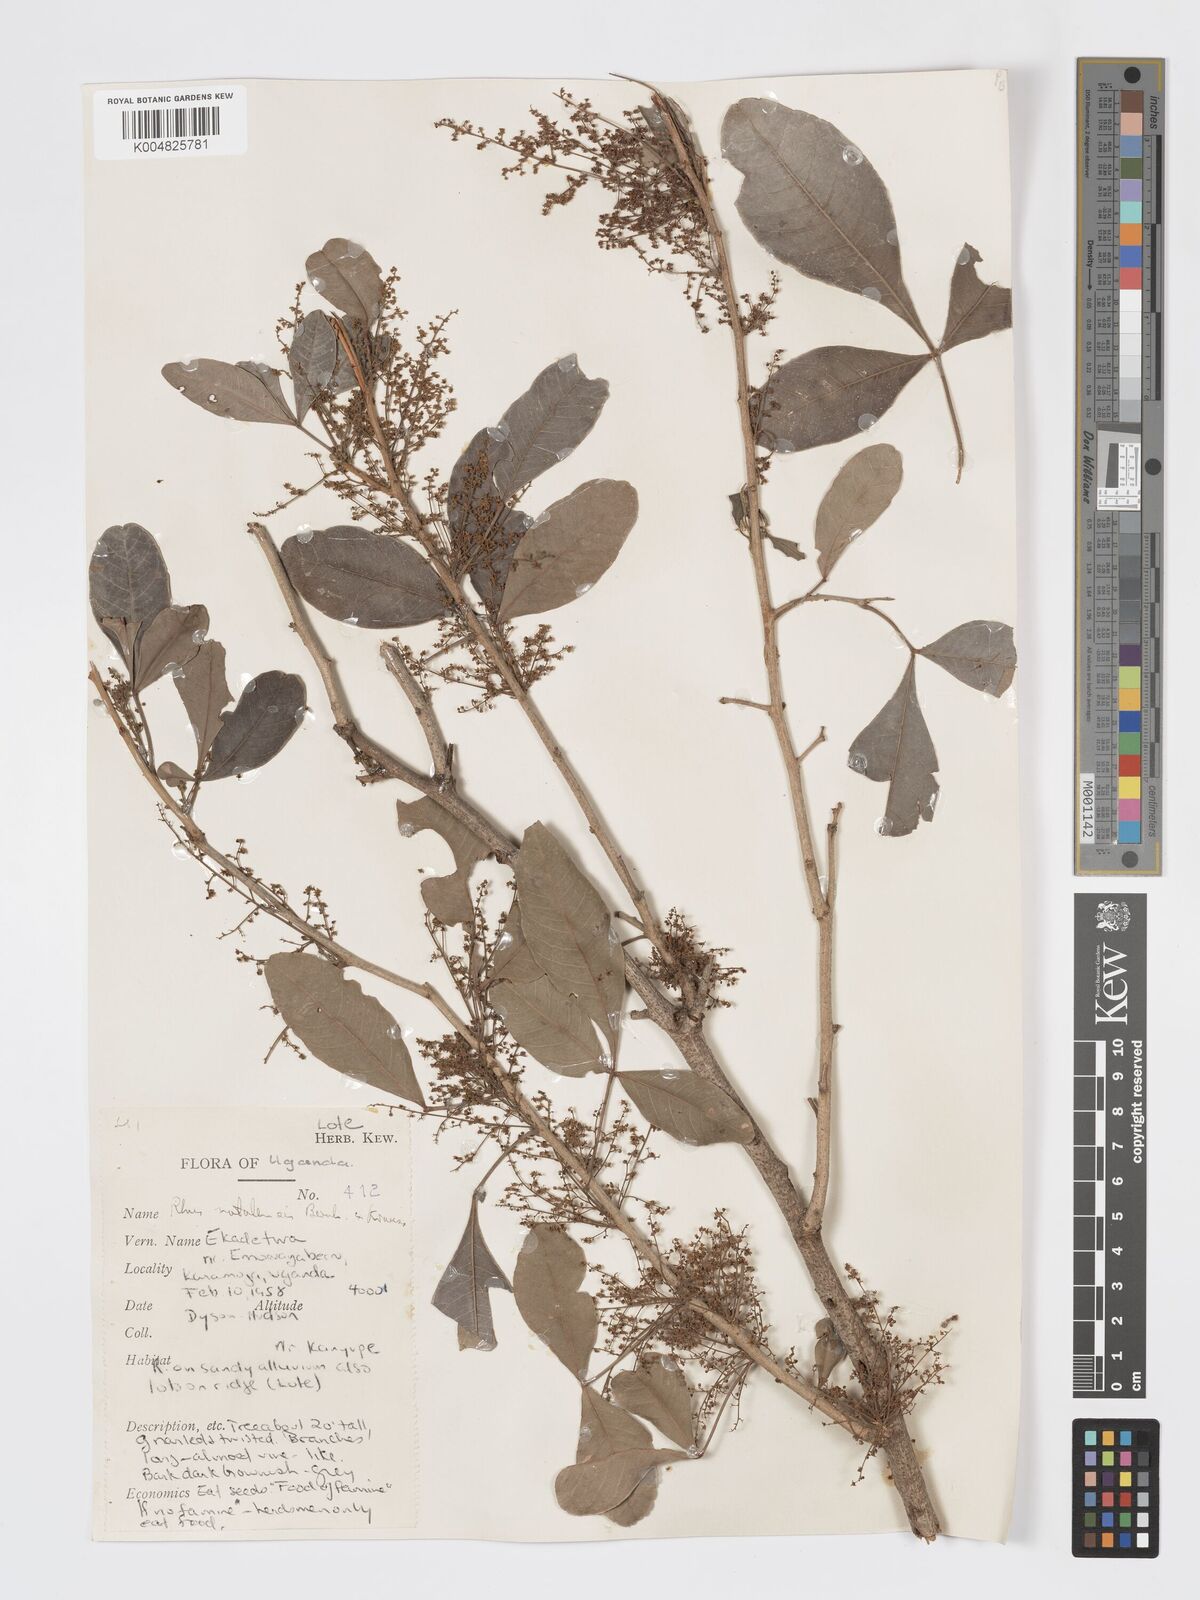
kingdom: Plantae
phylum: Tracheophyta
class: Magnoliopsida
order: Sapindales
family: Anacardiaceae
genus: Searsia
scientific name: Searsia natalensis
